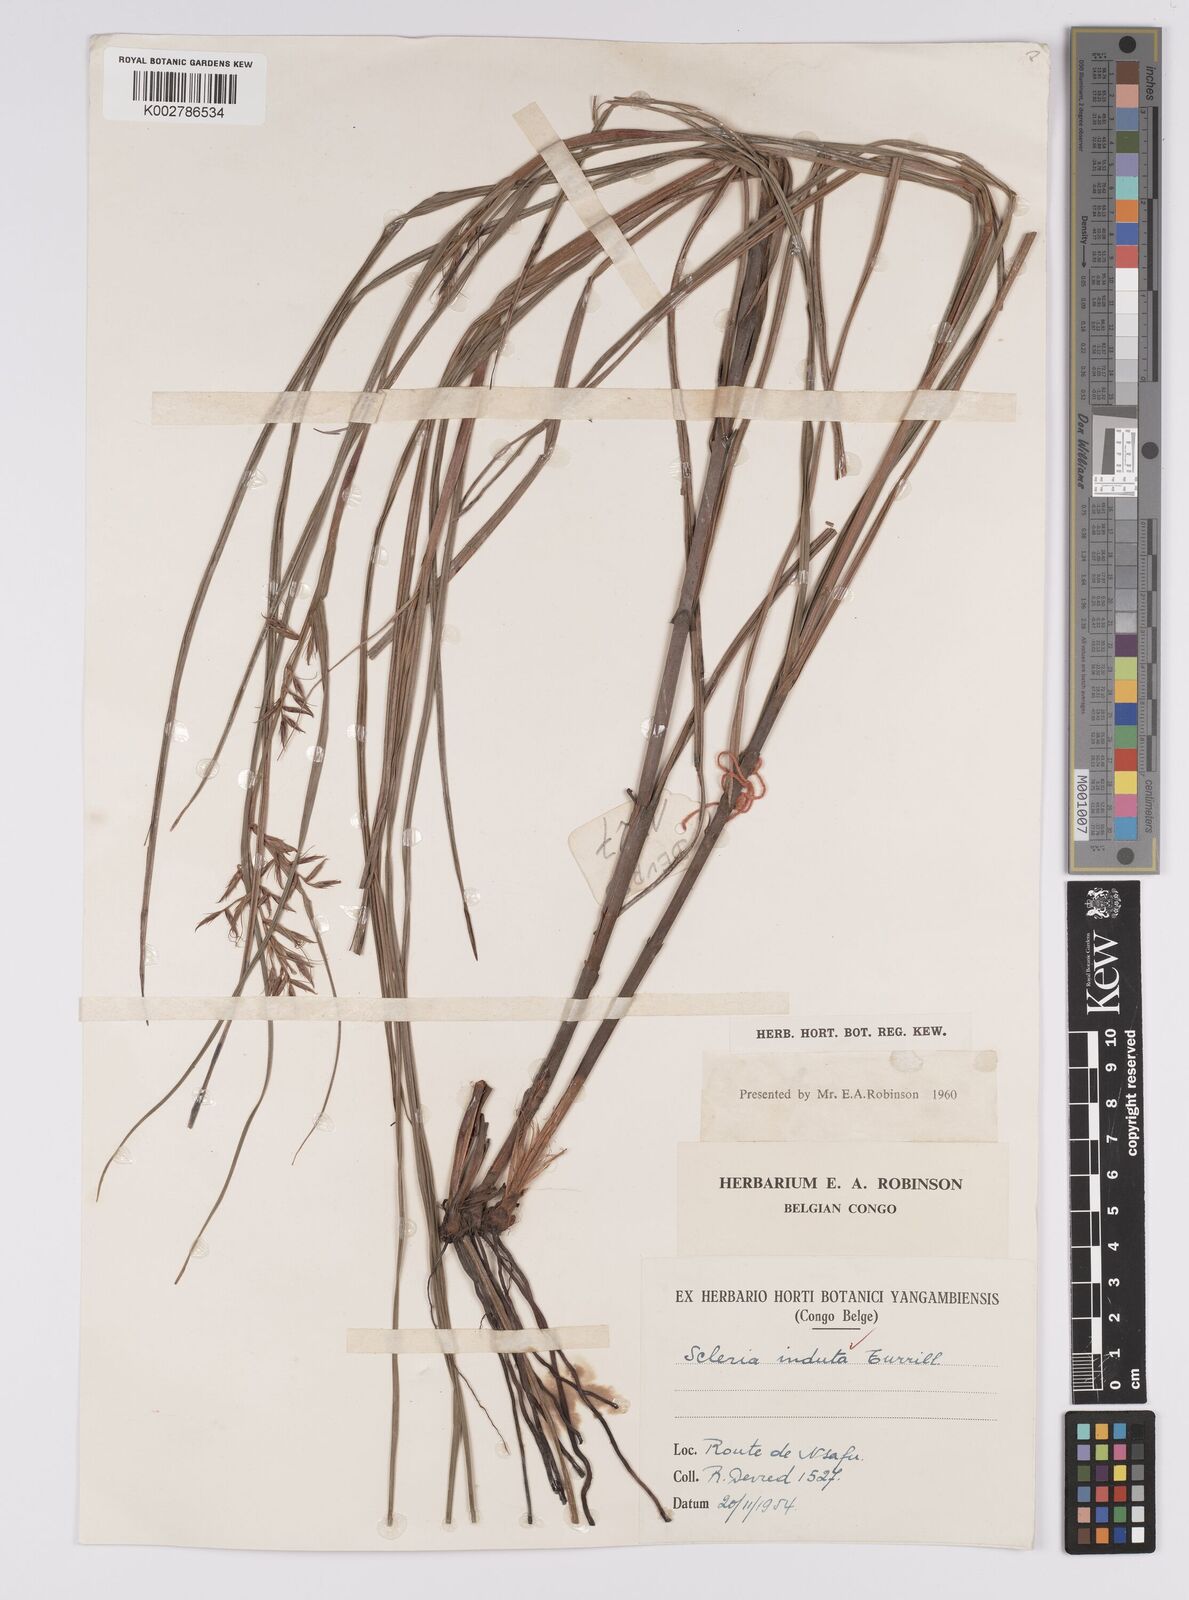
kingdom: Plantae
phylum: Tracheophyta
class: Liliopsida
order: Poales
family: Cyperaceae
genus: Scleria
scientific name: Scleria induta
